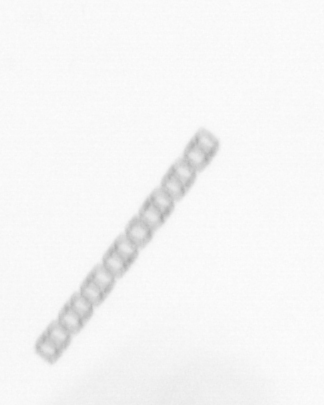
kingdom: Chromista
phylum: Ochrophyta
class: Bacillariophyceae
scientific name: Bacillariophyceae
